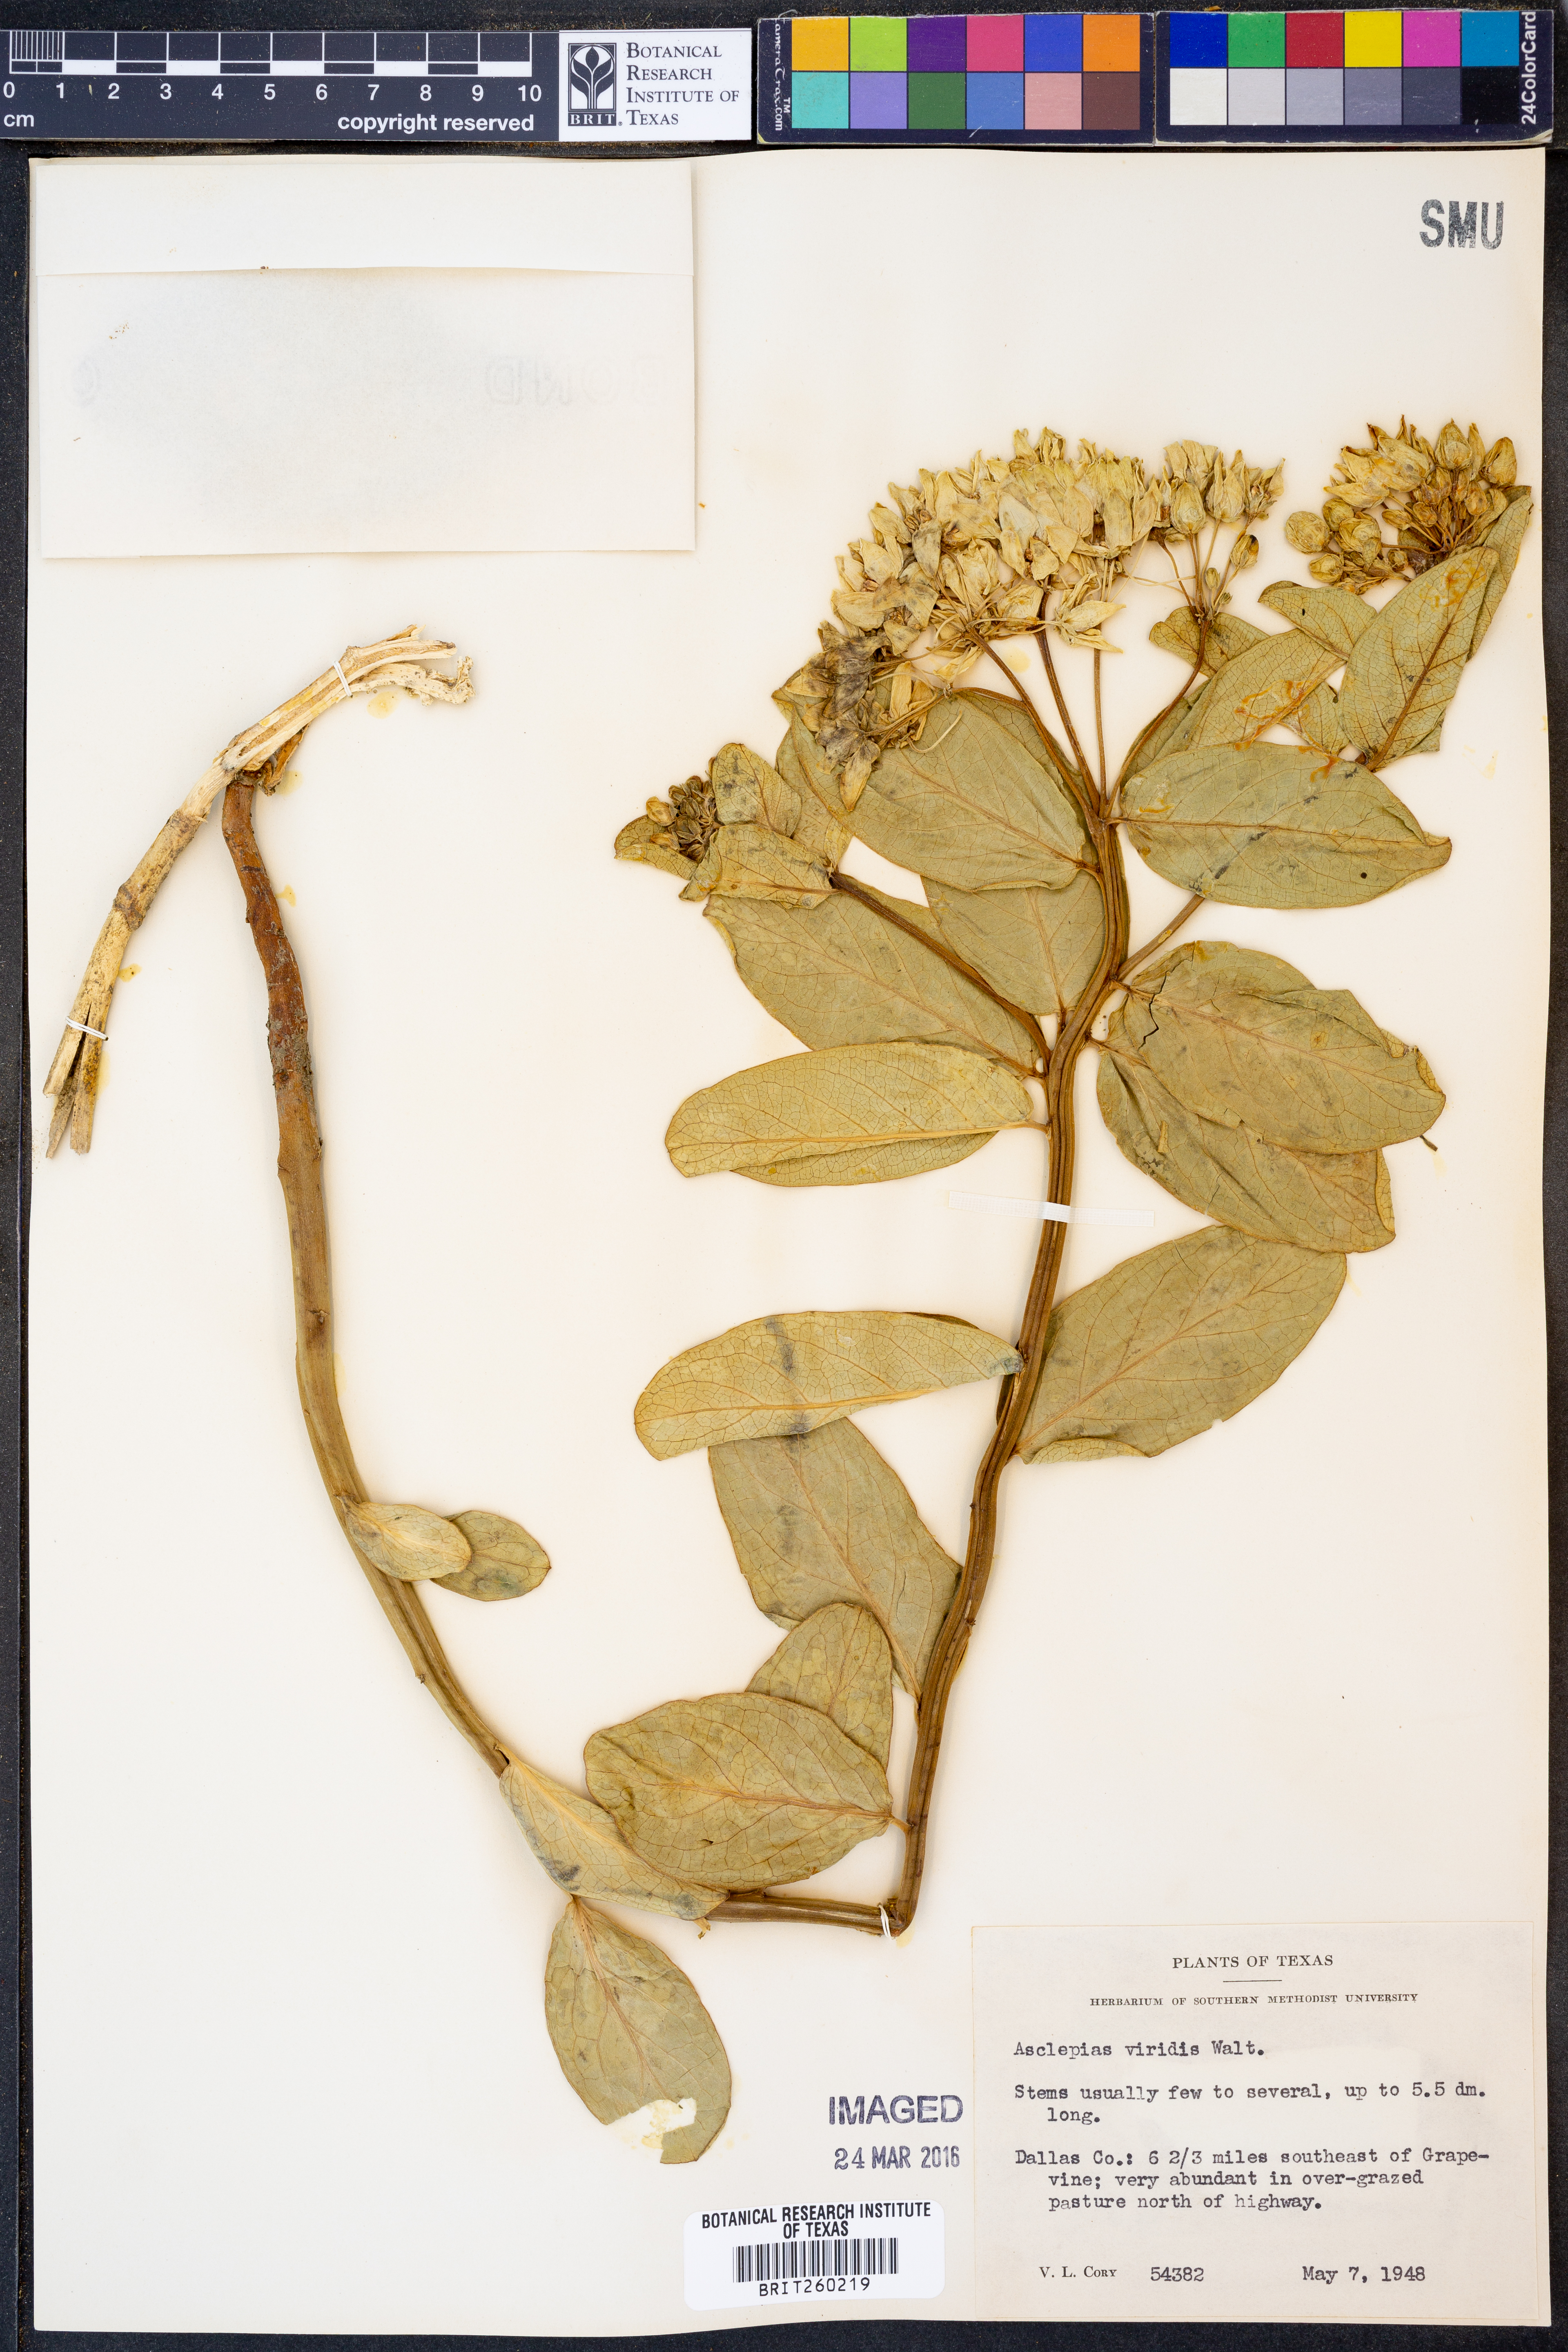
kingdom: Plantae
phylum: Tracheophyta
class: Magnoliopsida
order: Gentianales
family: Apocynaceae
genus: Asclepias
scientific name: Asclepias viridis
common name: Antelope-horns
